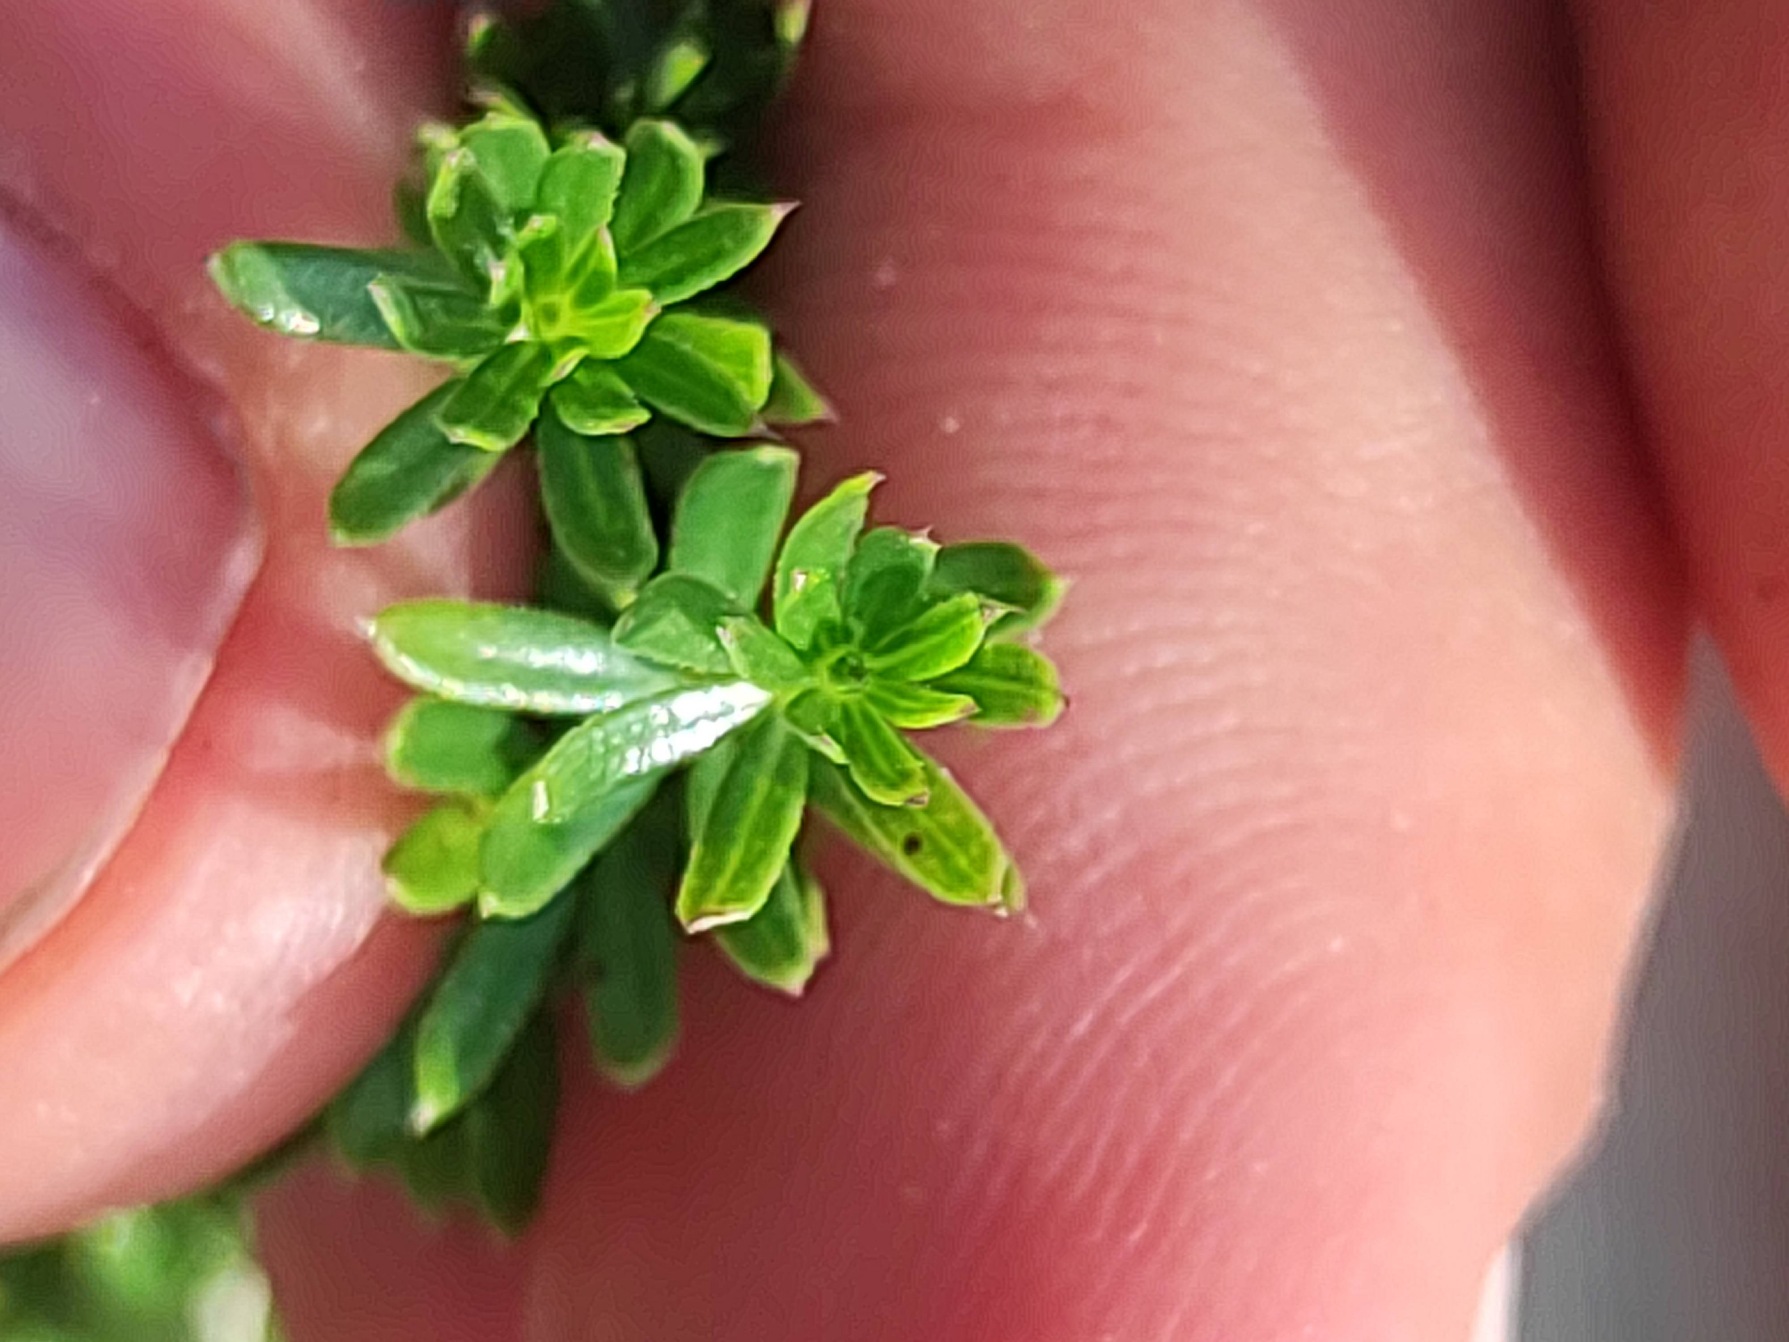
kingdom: Plantae
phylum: Tracheophyta
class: Magnoliopsida
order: Gentianales
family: Rubiaceae
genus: Galium
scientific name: Galium mollugo
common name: Hvid snerre
